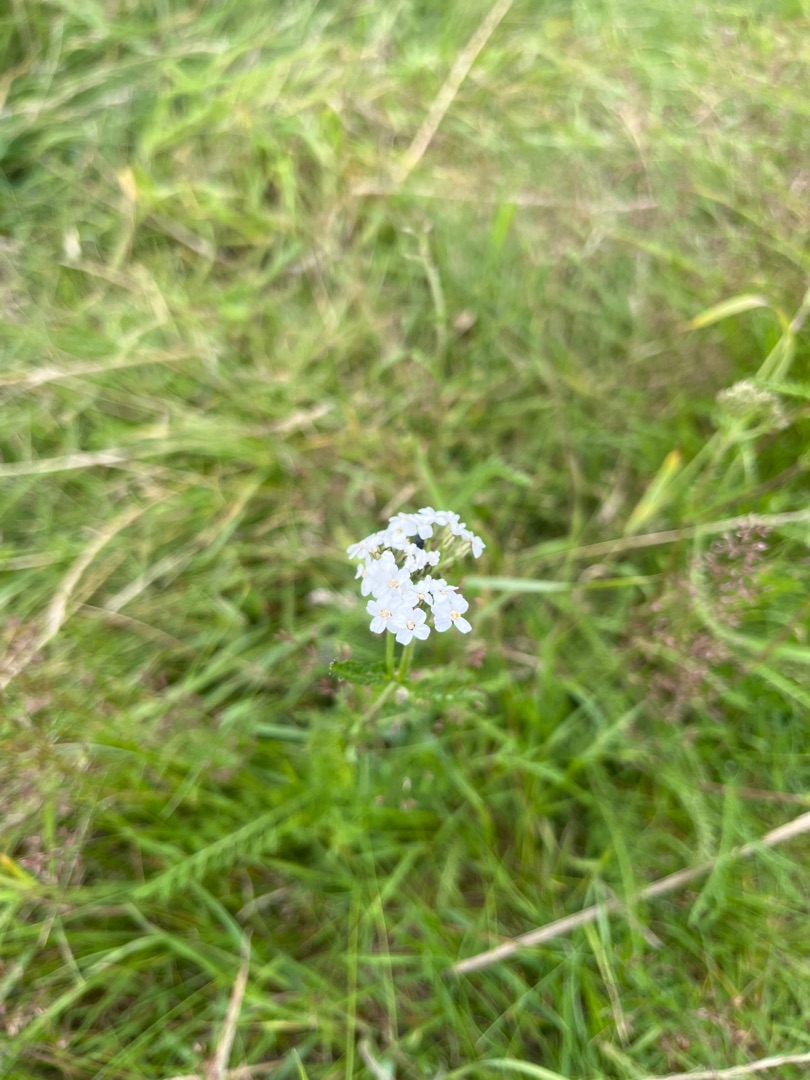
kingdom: Plantae
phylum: Tracheophyta
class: Magnoliopsida
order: Asterales
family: Asteraceae
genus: Achillea
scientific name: Achillea millefolium
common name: Almindelig røllike
